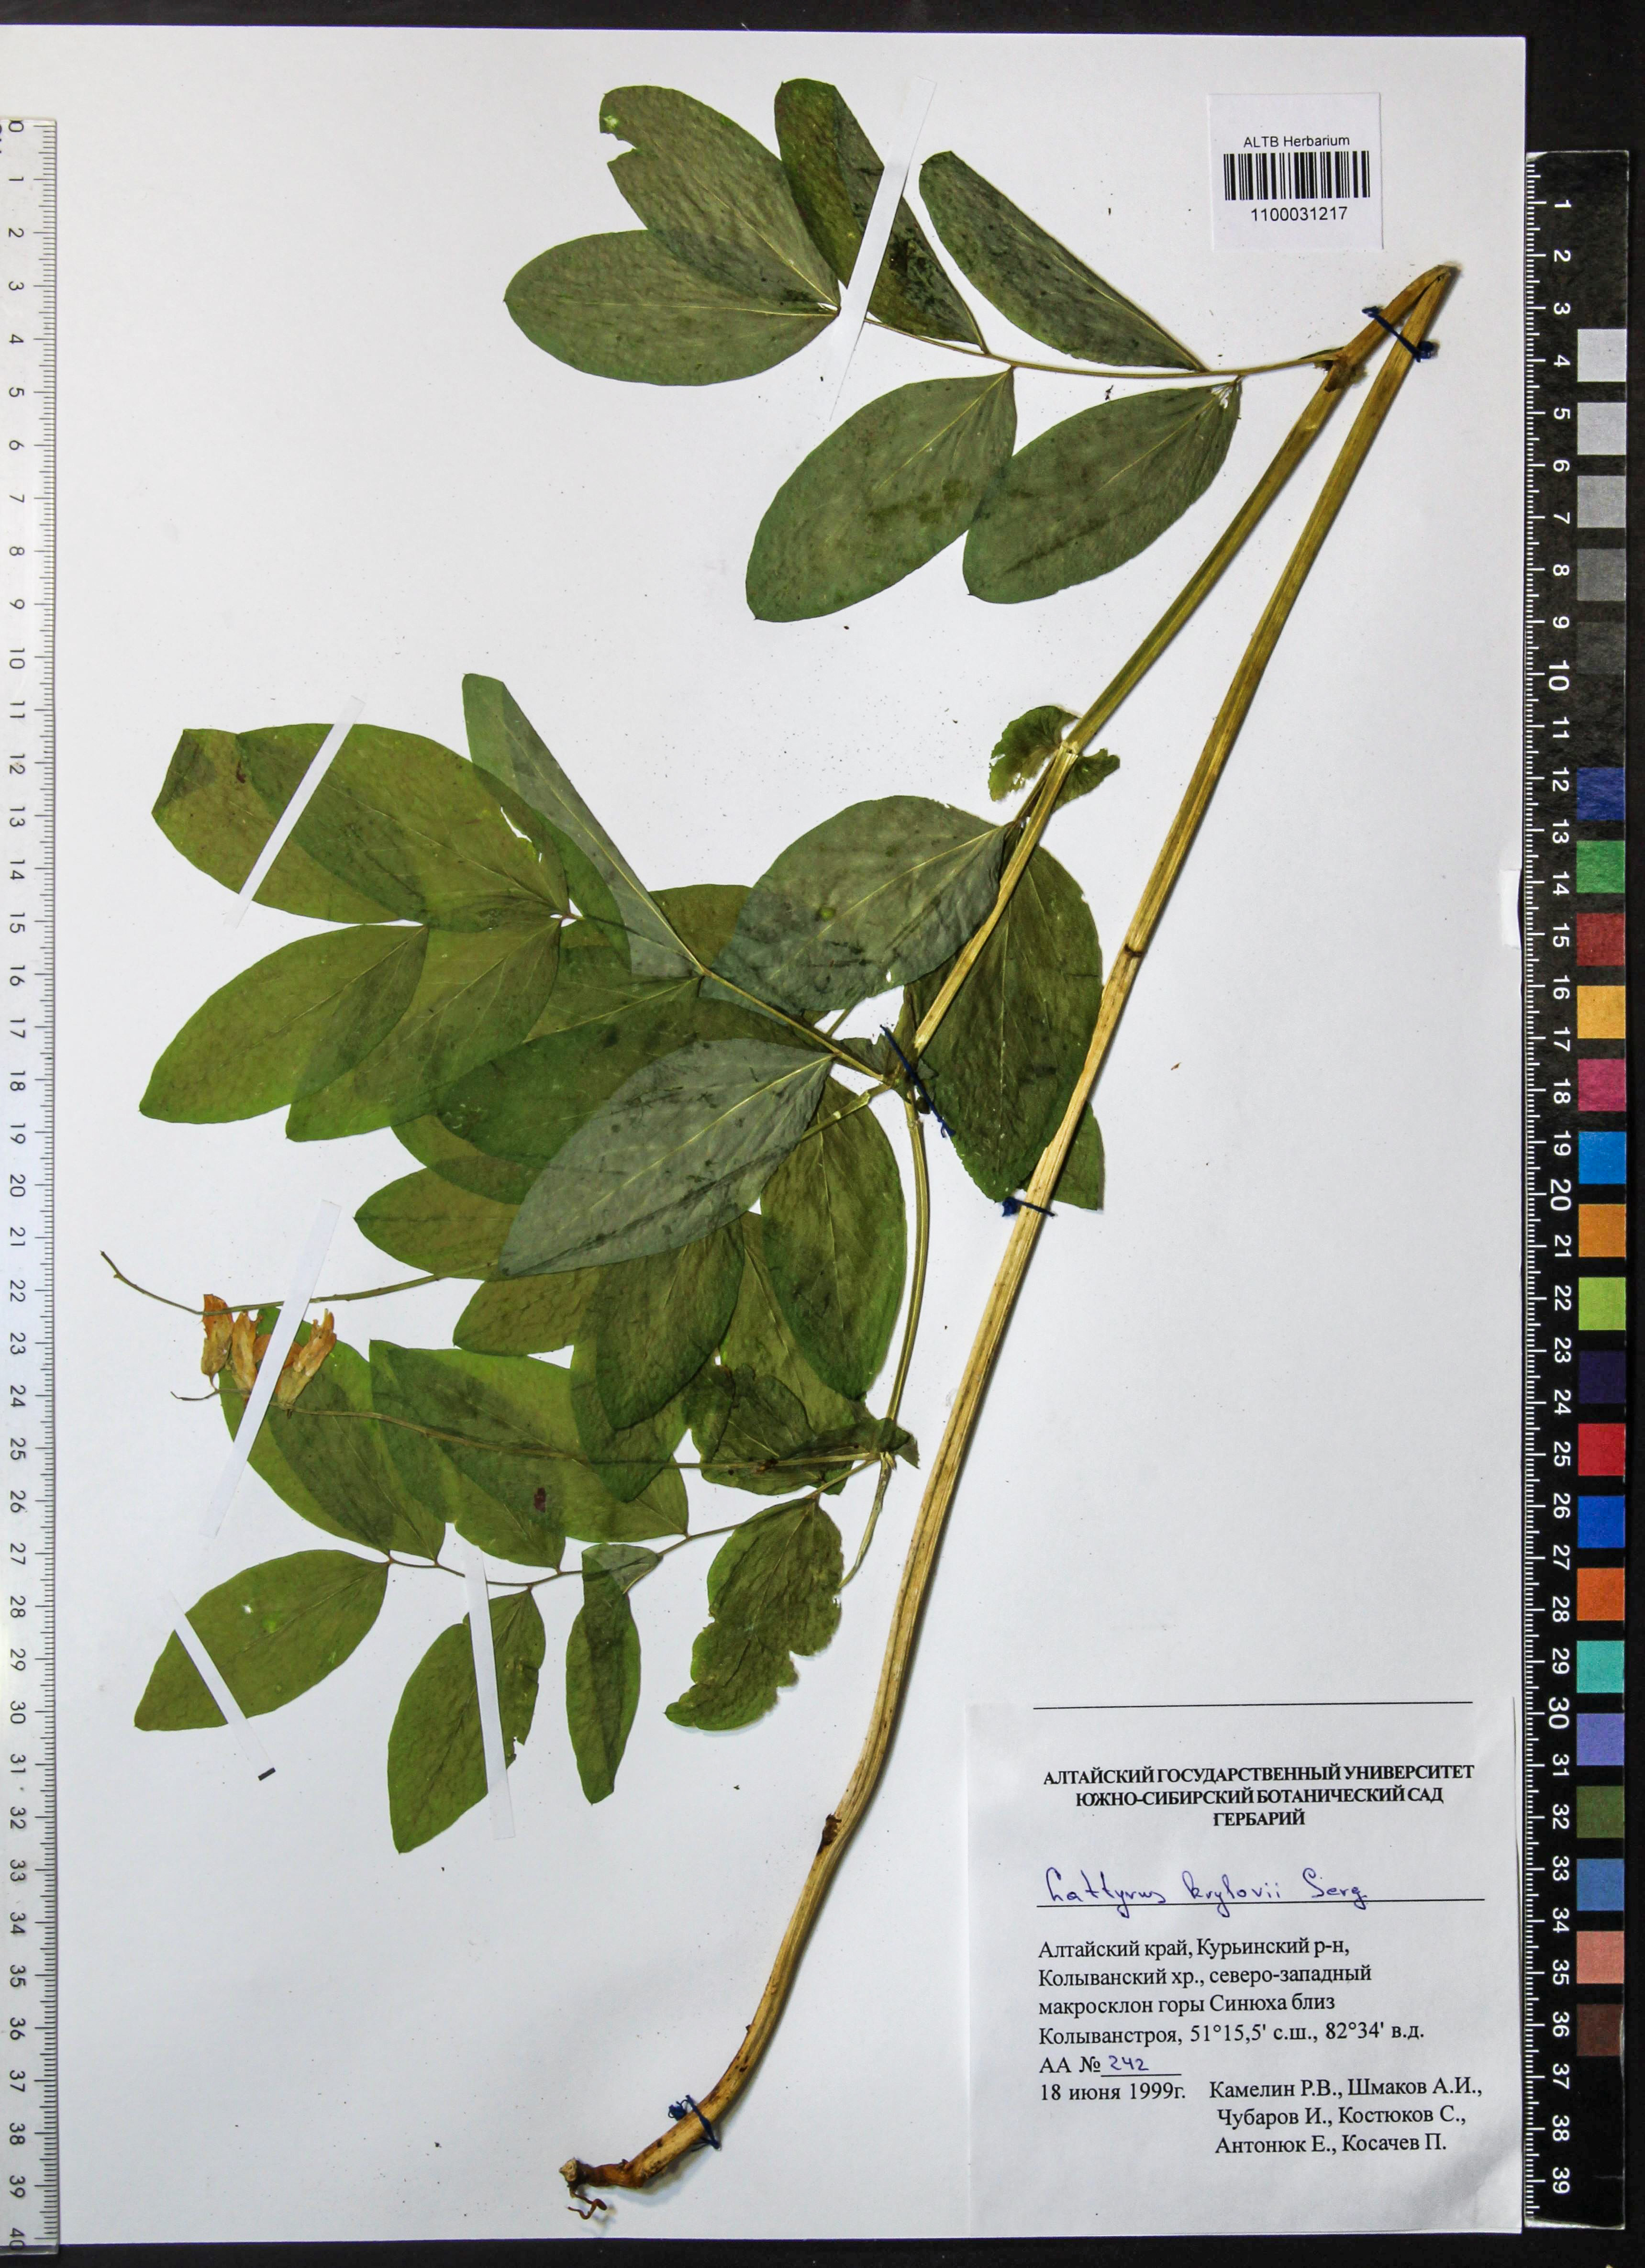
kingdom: Plantae
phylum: Tracheophyta
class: Magnoliopsida
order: Fabales
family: Fabaceae
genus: Lathyrus
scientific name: Lathyrus krylovii
